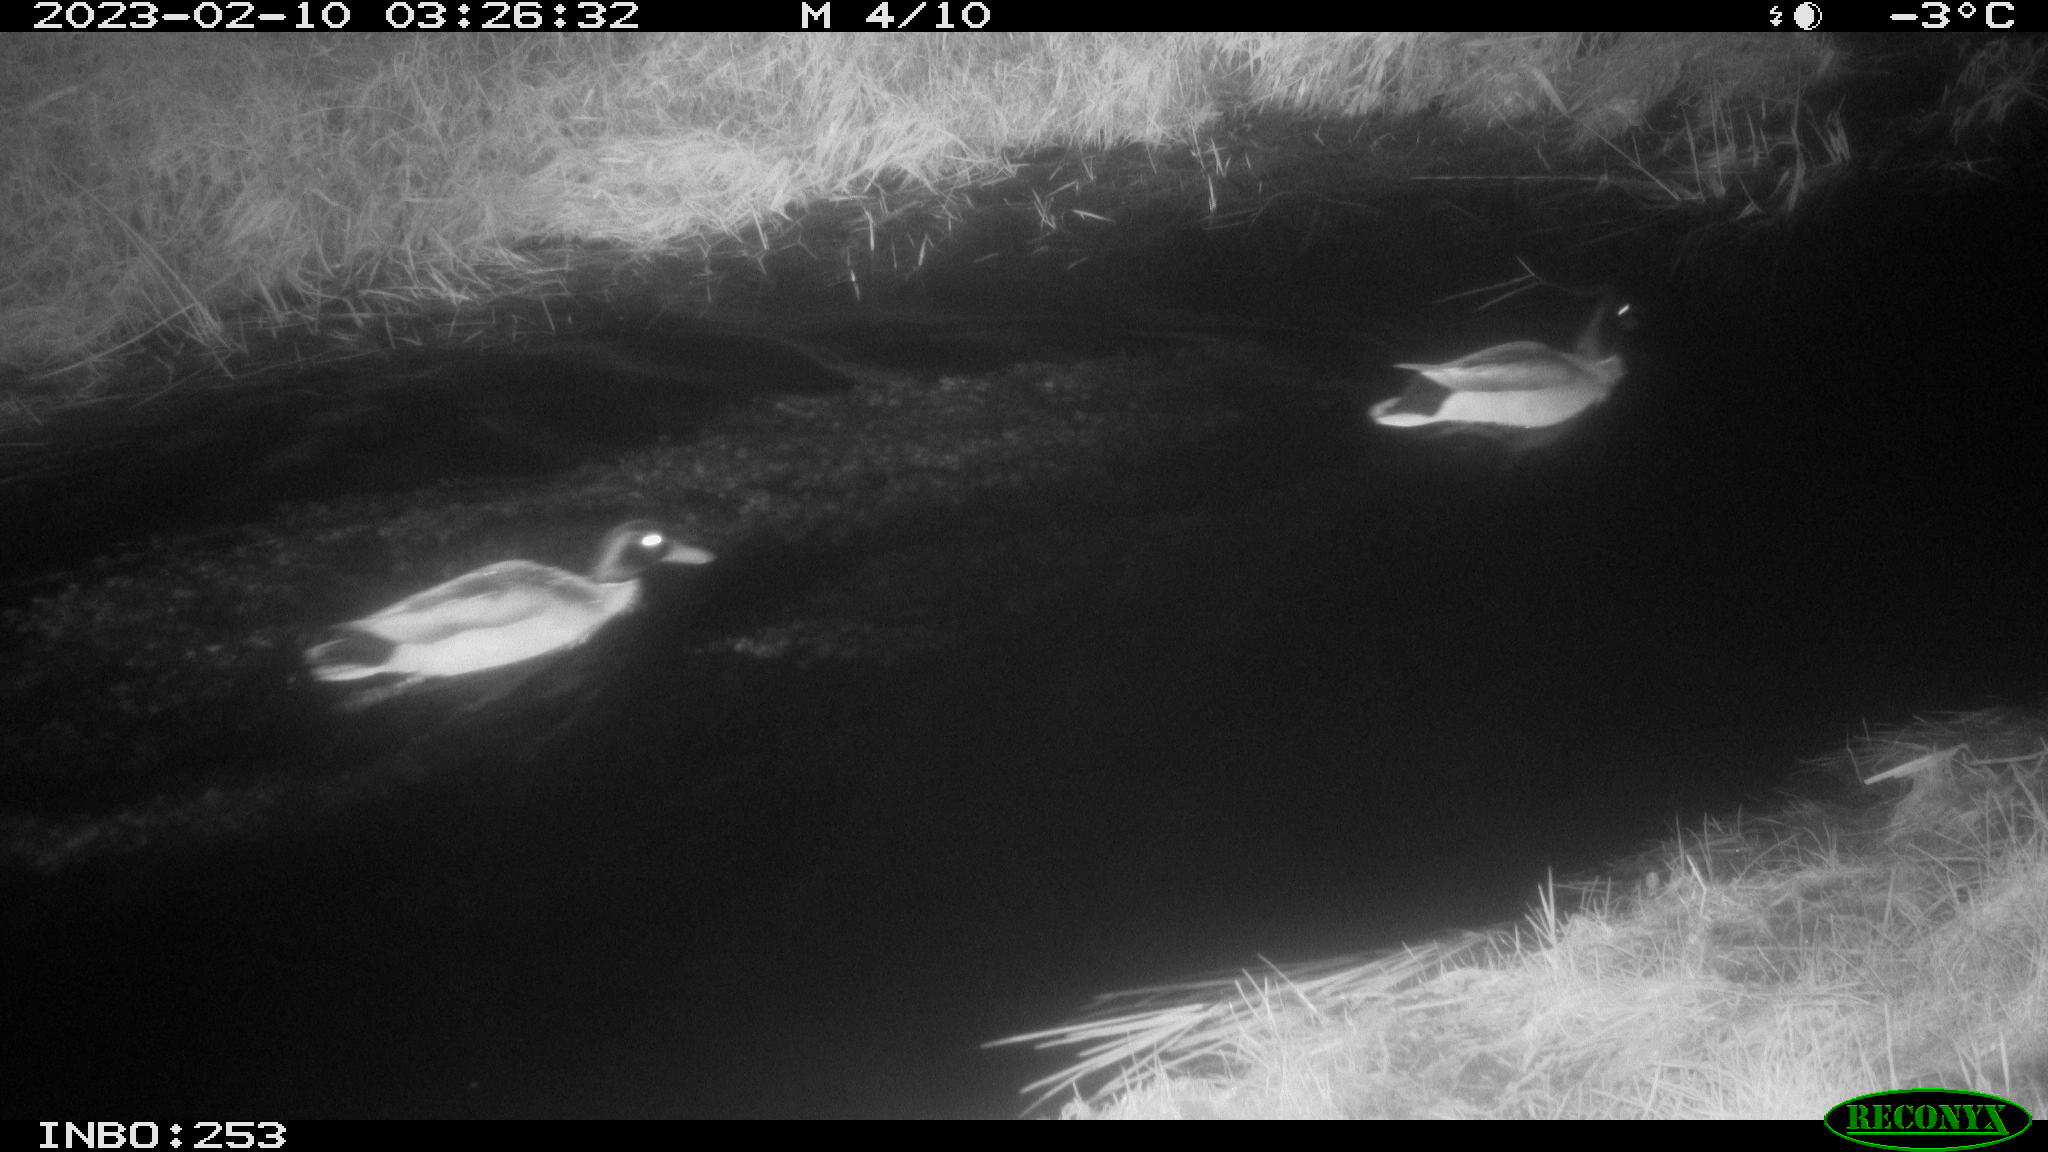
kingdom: Animalia
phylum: Chordata
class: Aves
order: Anseriformes
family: Anatidae
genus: Anas
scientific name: Anas
